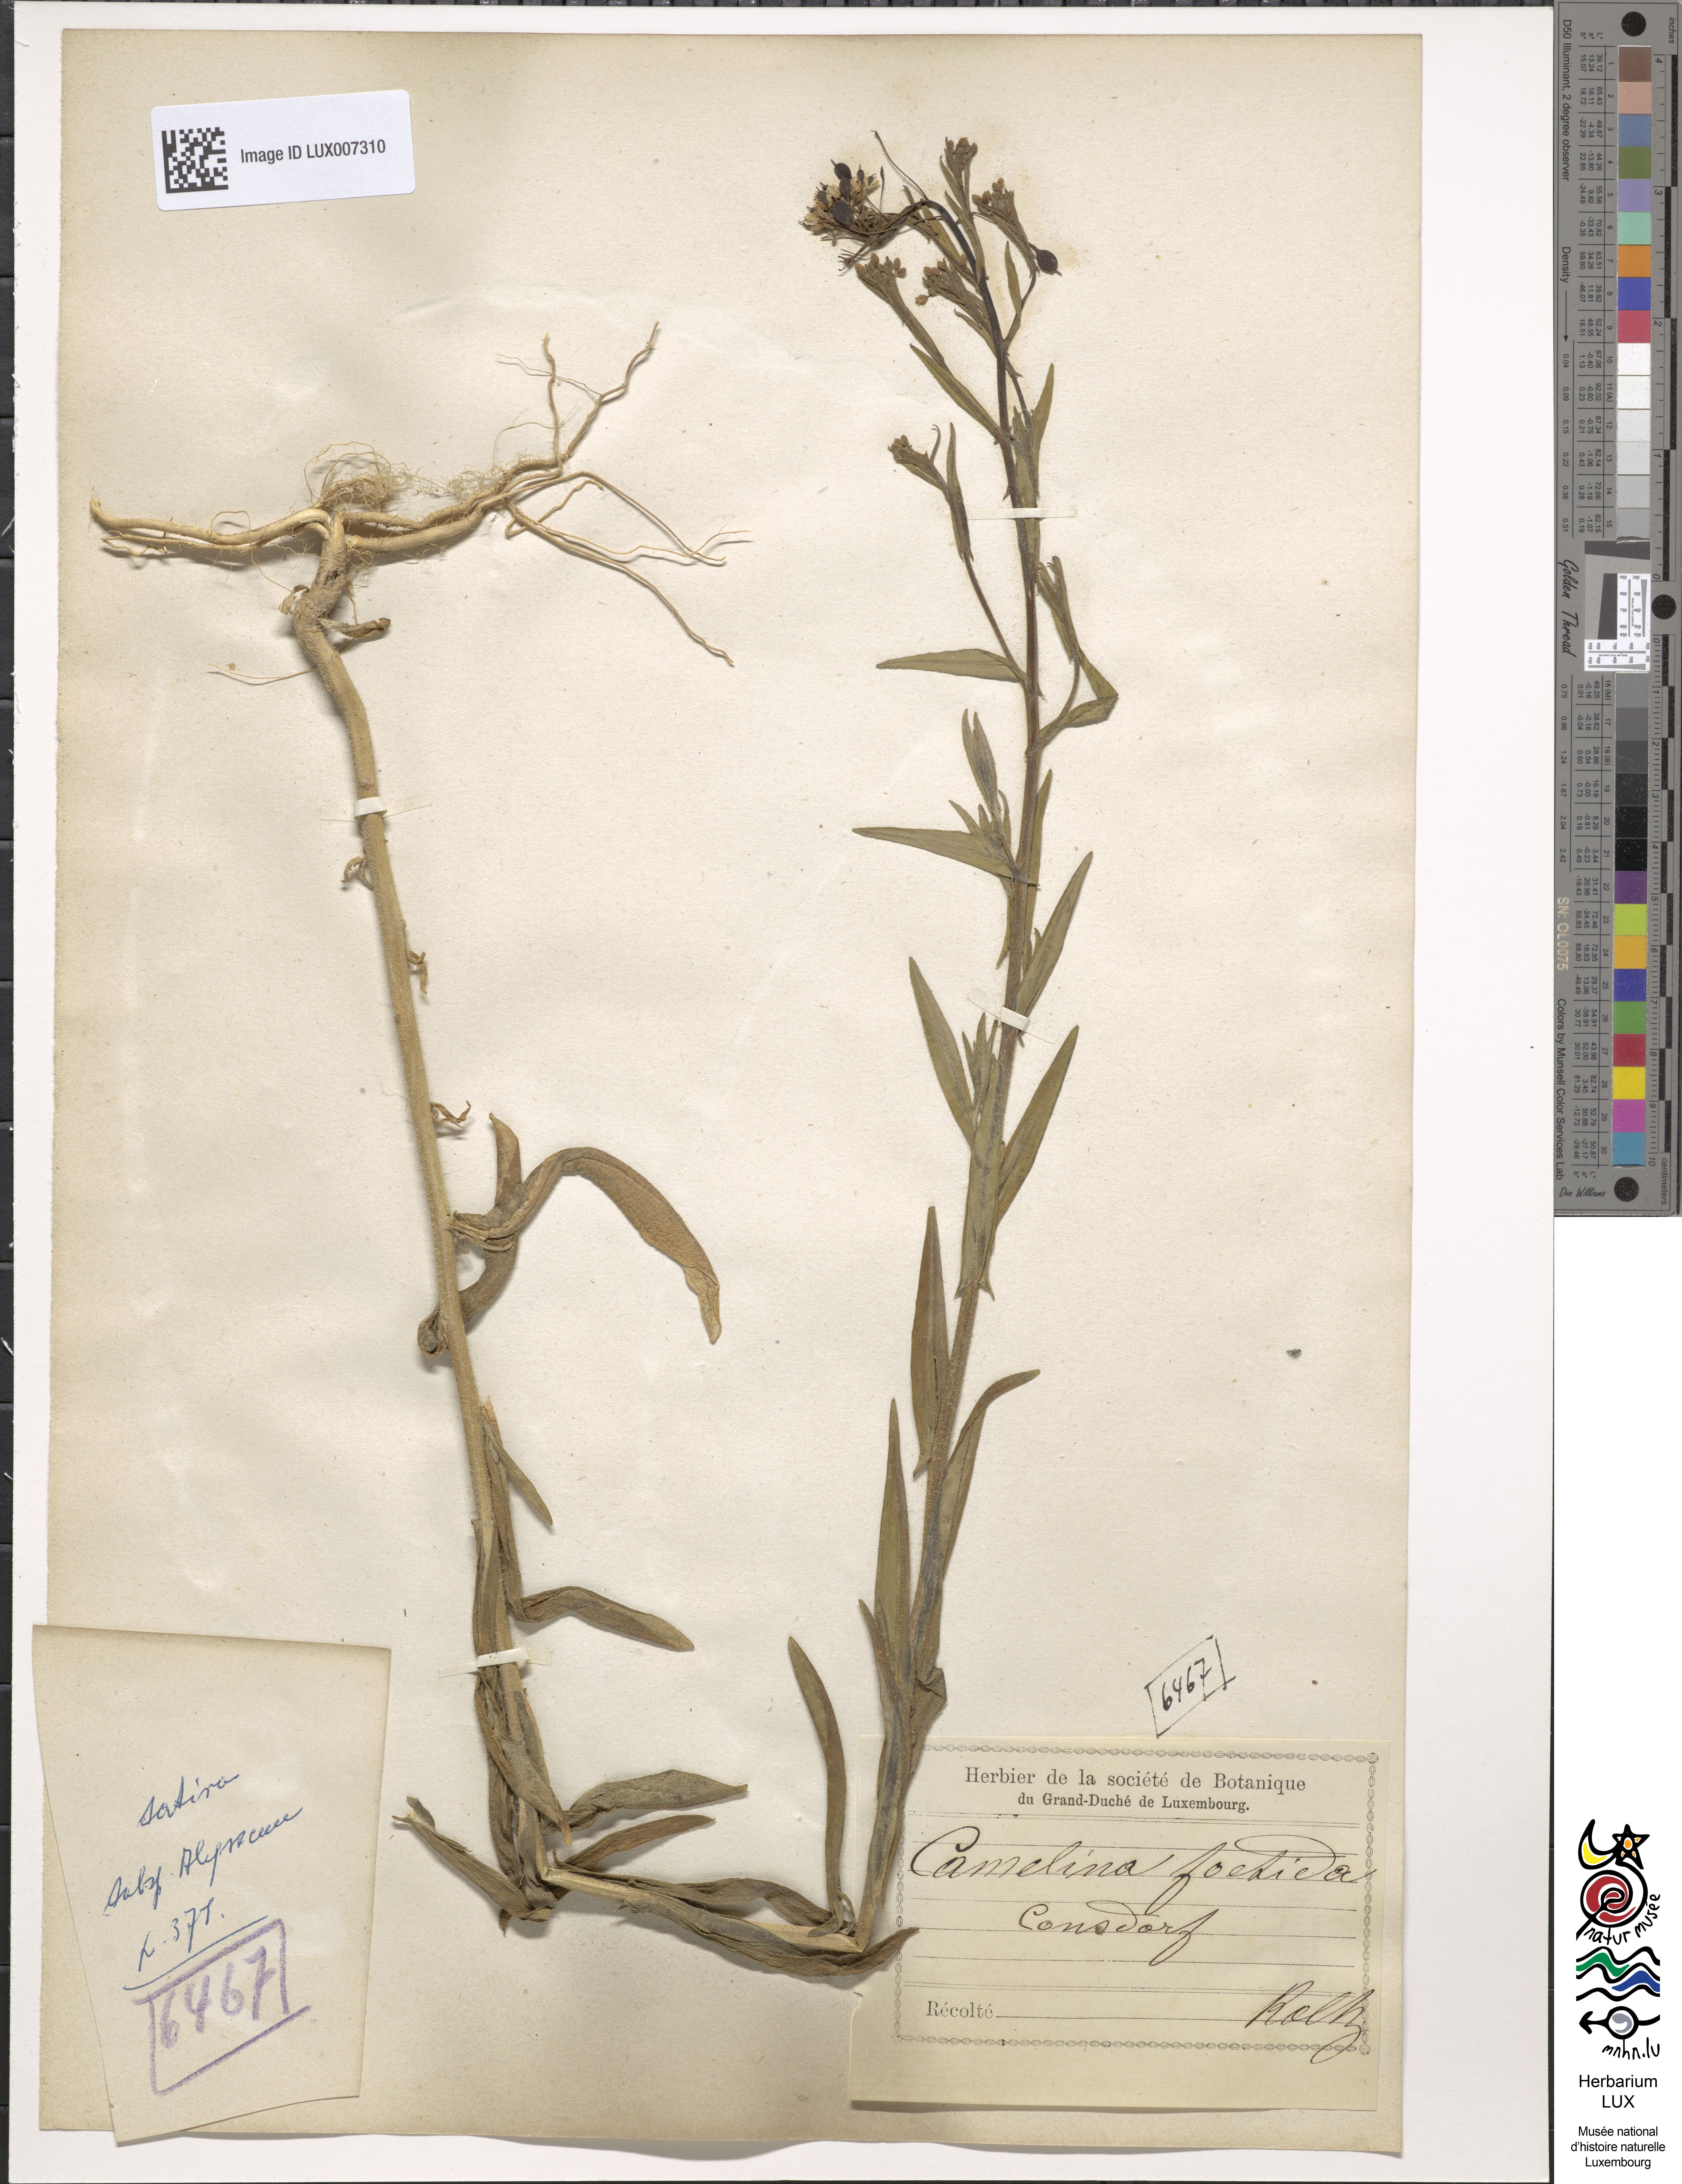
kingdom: Plantae
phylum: Tracheophyta
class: Magnoliopsida
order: Brassicales
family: Brassicaceae
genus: Camelina
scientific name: Camelina alyssum
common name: Gold-of-pleasure
